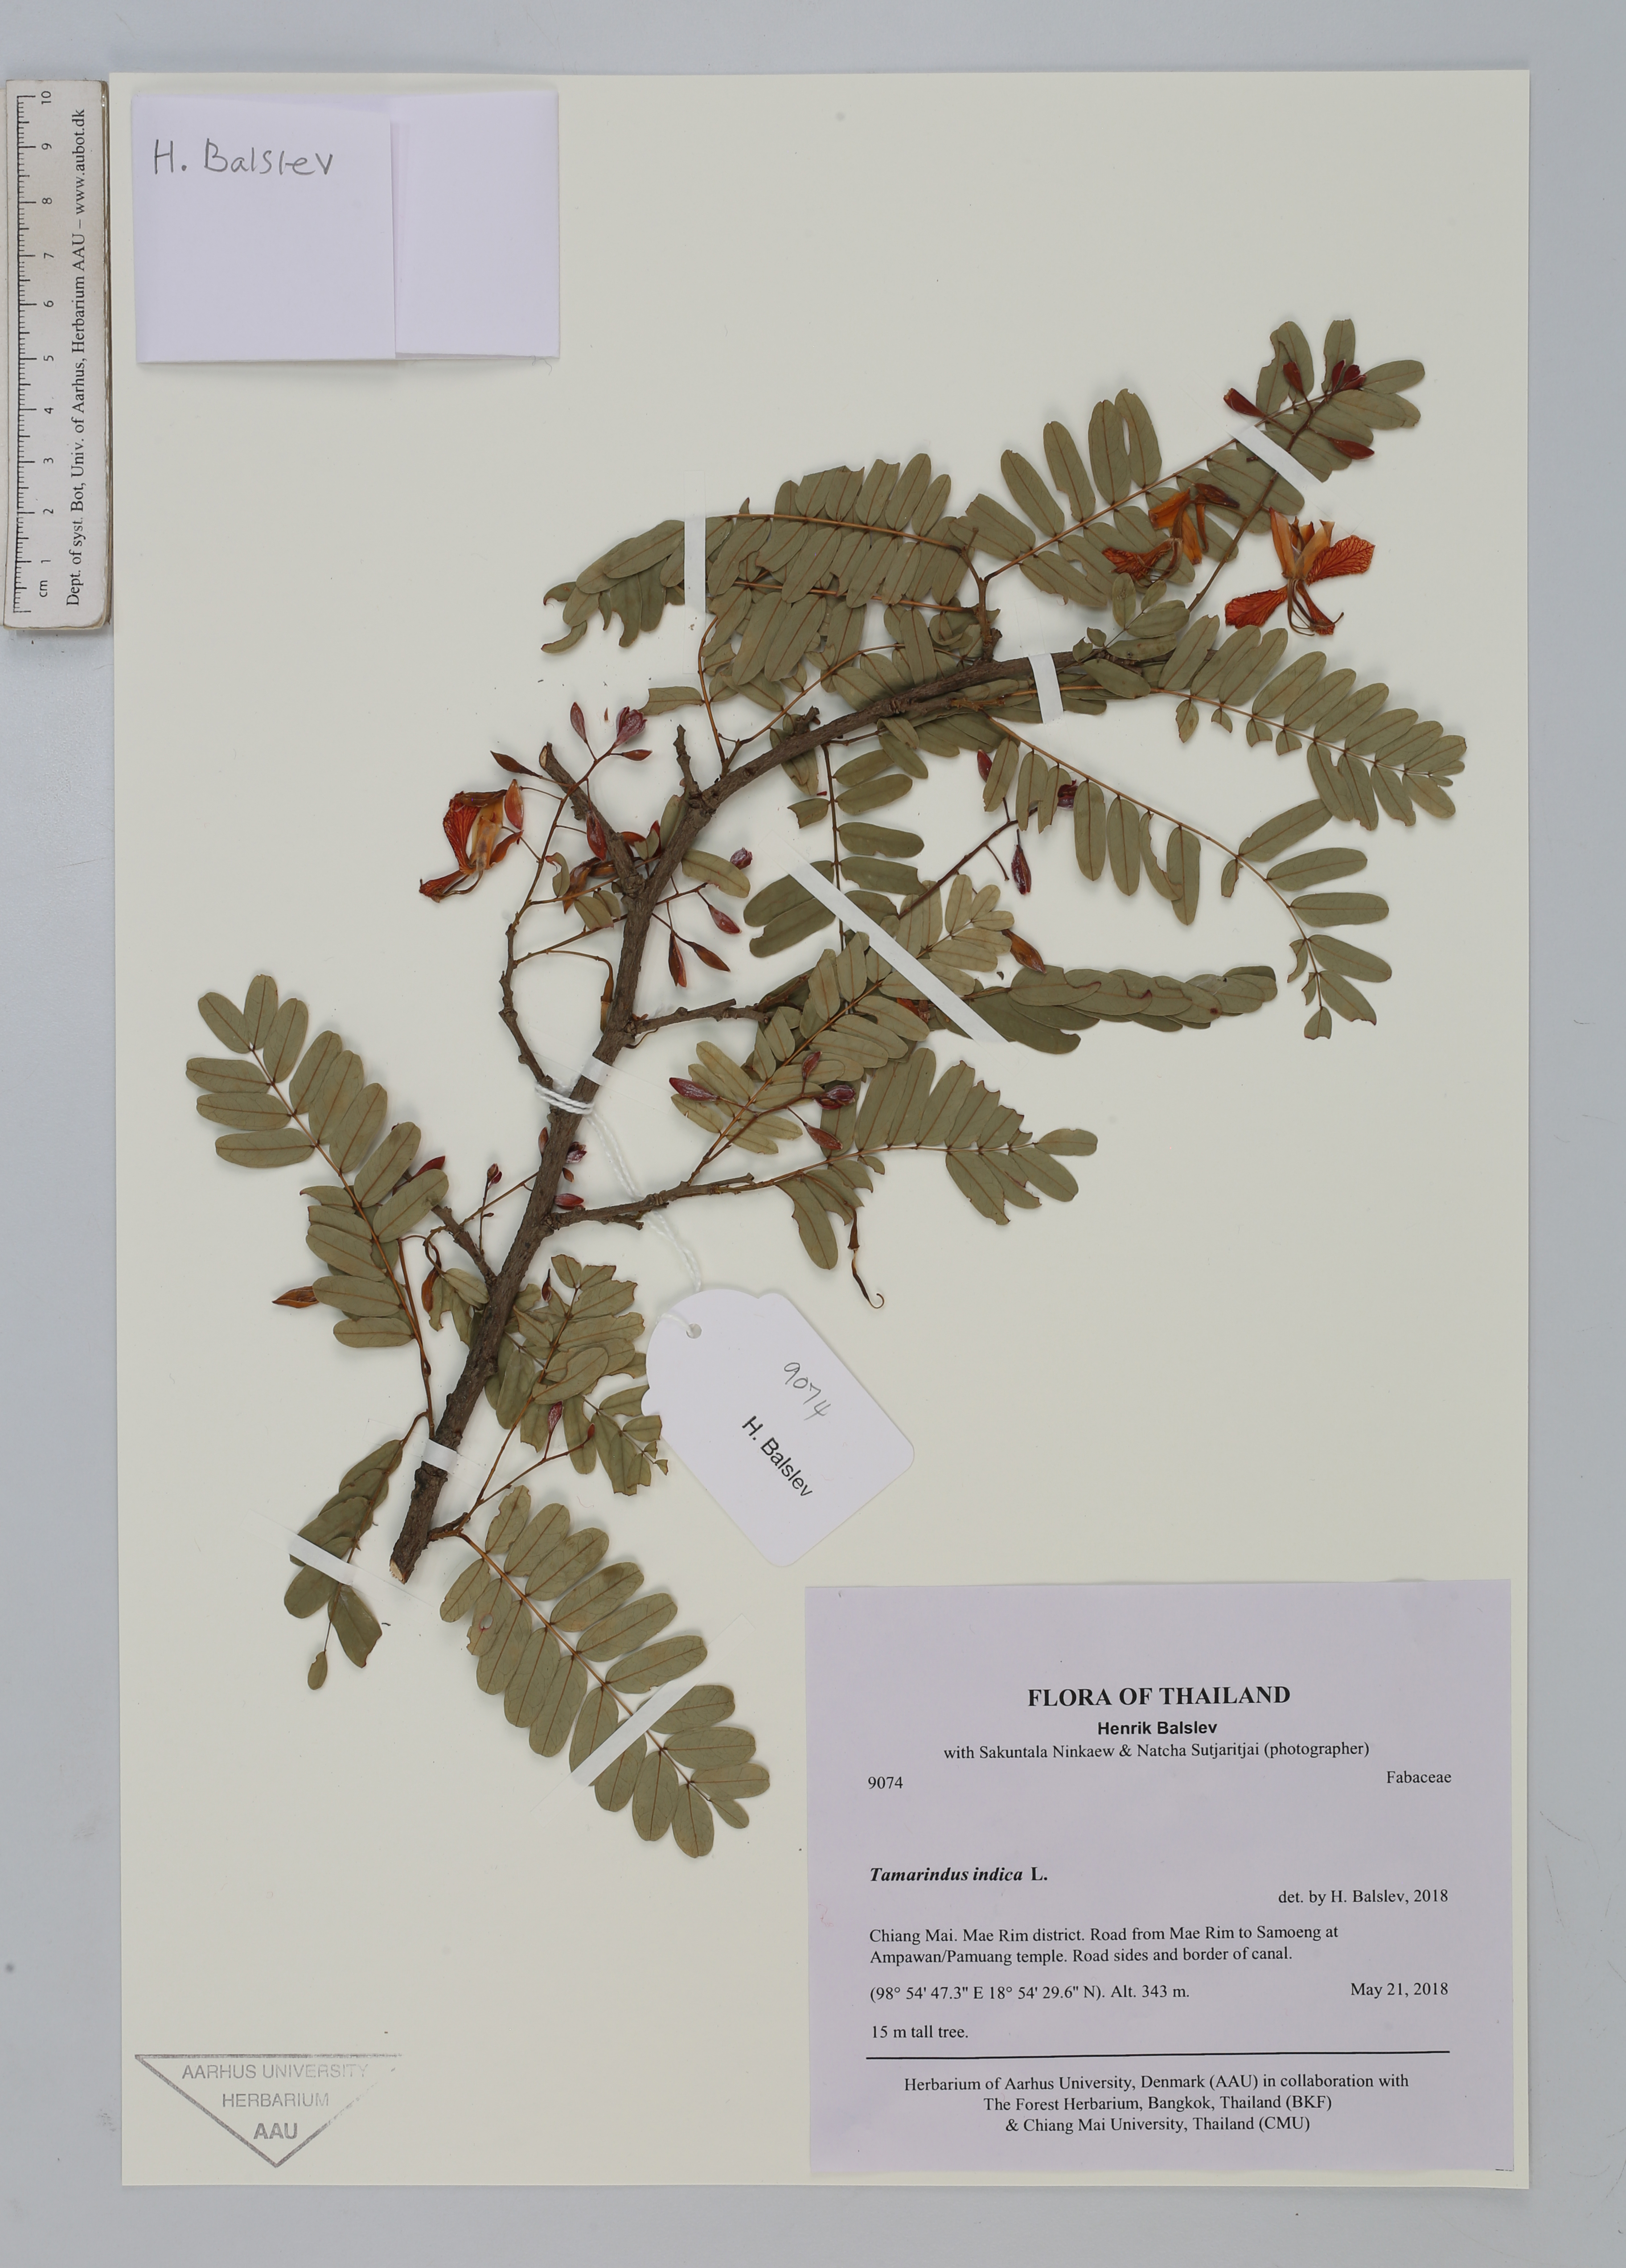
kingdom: Plantae
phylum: Tracheophyta
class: Magnoliopsida
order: Fabales
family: Fabaceae
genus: Tamarindus
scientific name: Tamarindus indica
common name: Tamarind
